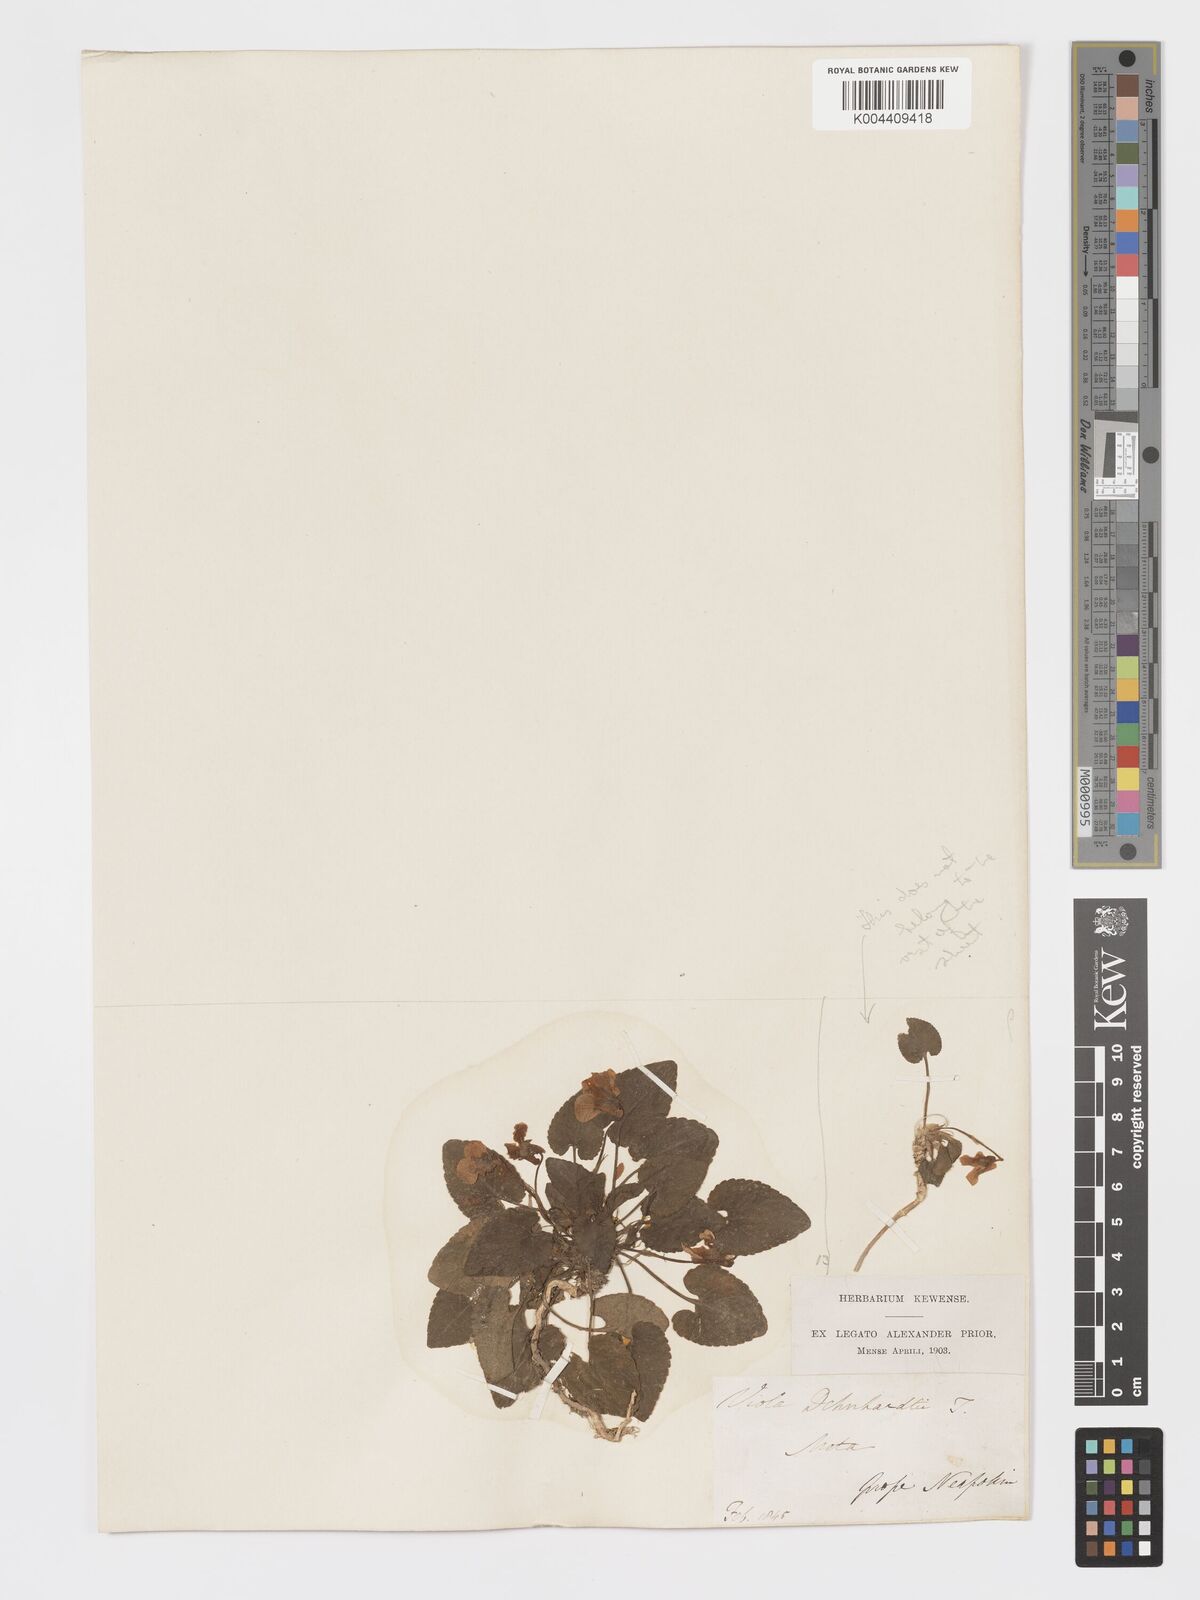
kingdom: Plantae
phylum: Tracheophyta
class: Magnoliopsida
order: Malpighiales
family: Violaceae
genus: Viola
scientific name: Viola alba
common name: White violet
